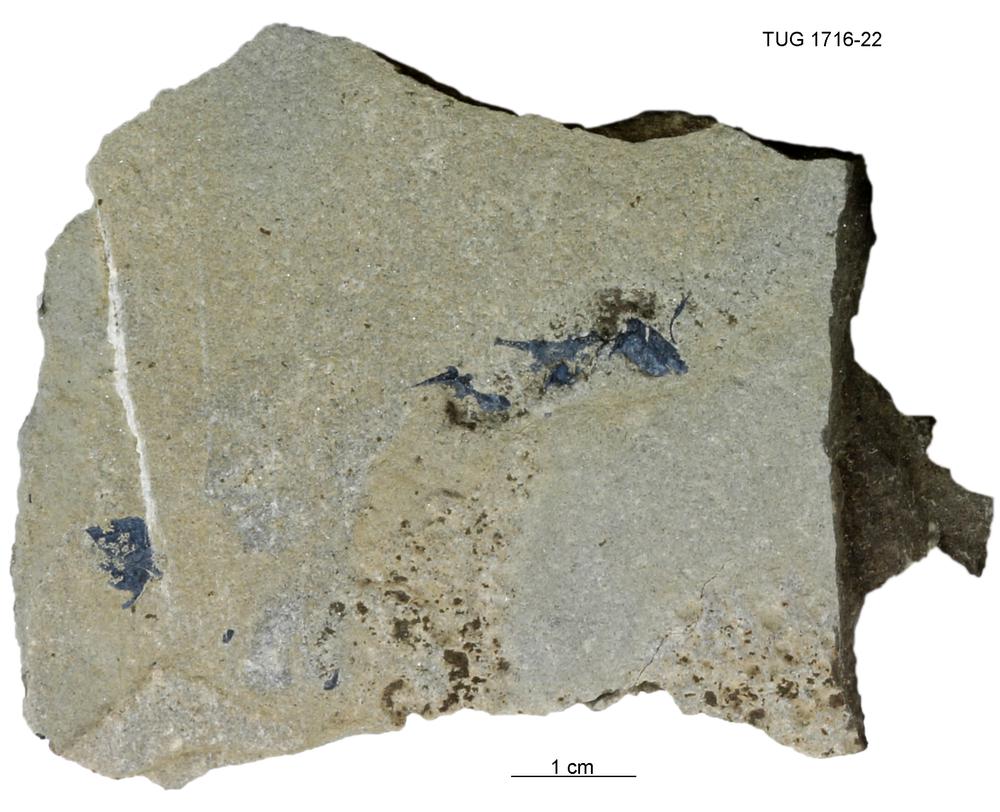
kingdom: Animalia
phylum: Chordata
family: Coccosteidae
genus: Millerosteus
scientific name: Millerosteus minor
